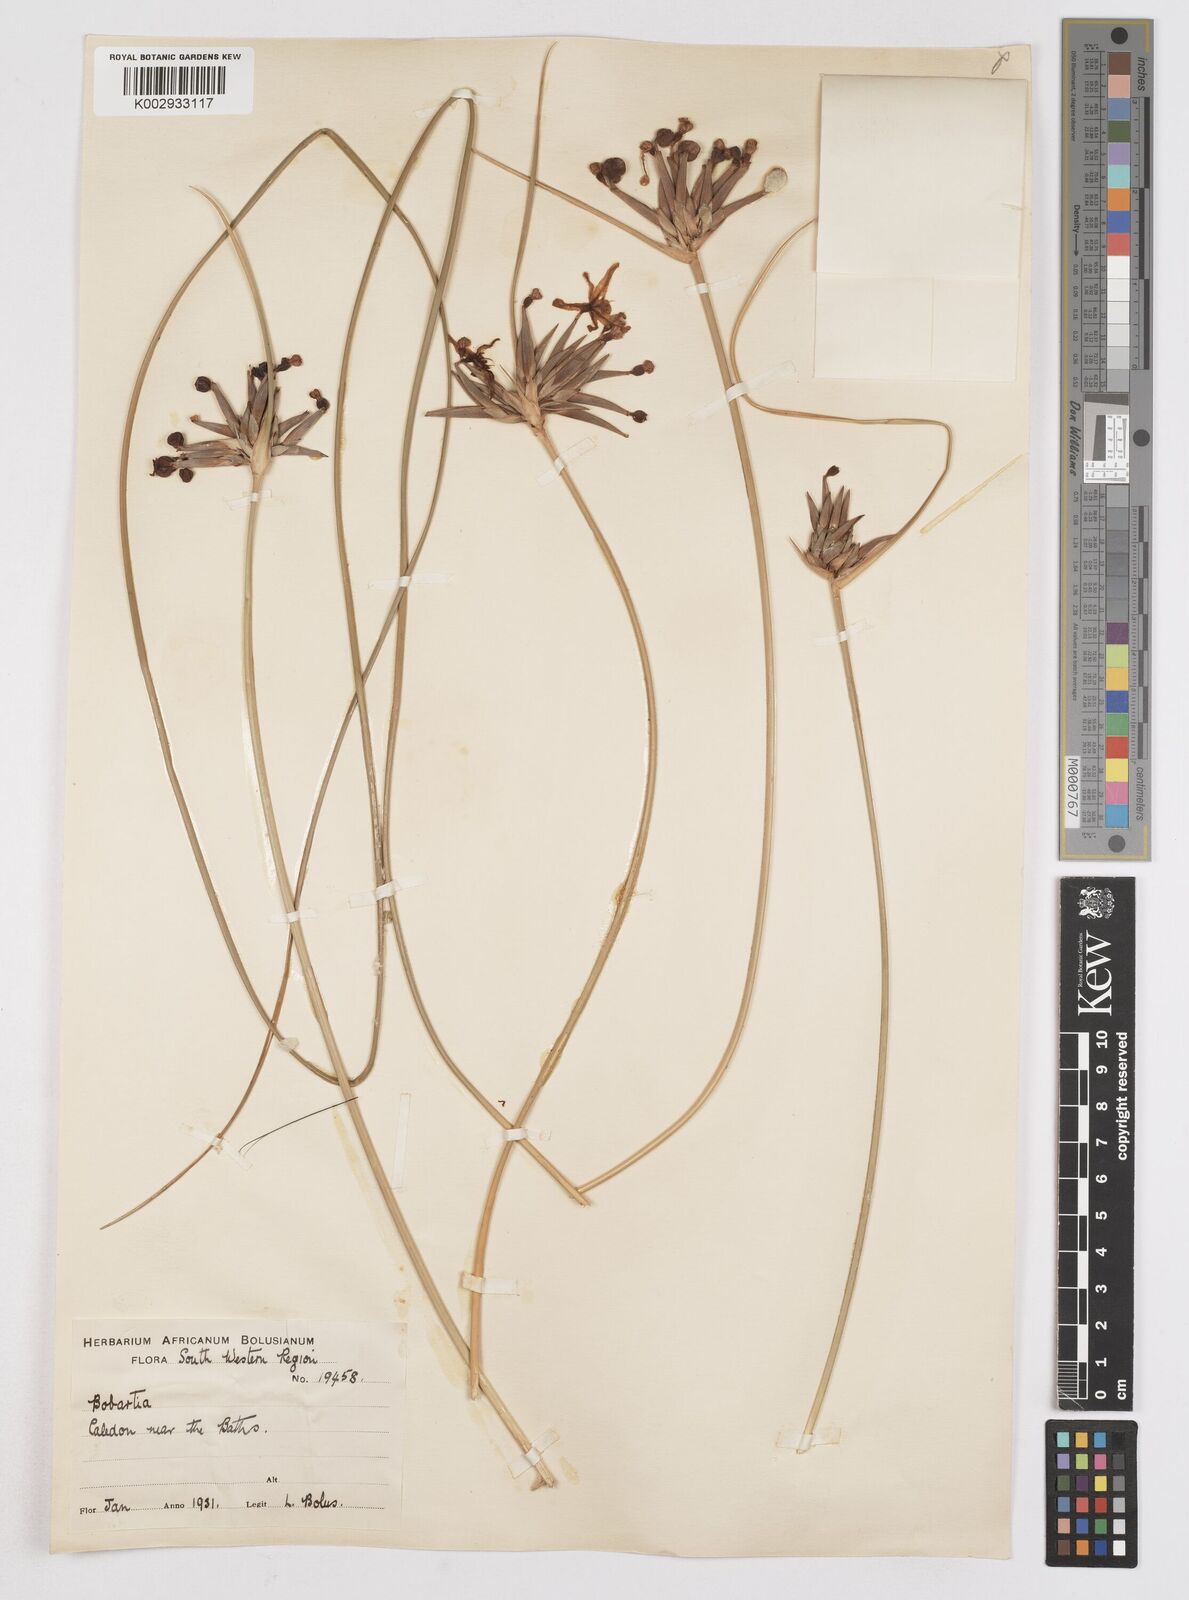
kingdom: Plantae
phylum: Tracheophyta
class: Liliopsida
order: Asparagales
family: Iridaceae
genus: Bobartia
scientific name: Bobartia indica
